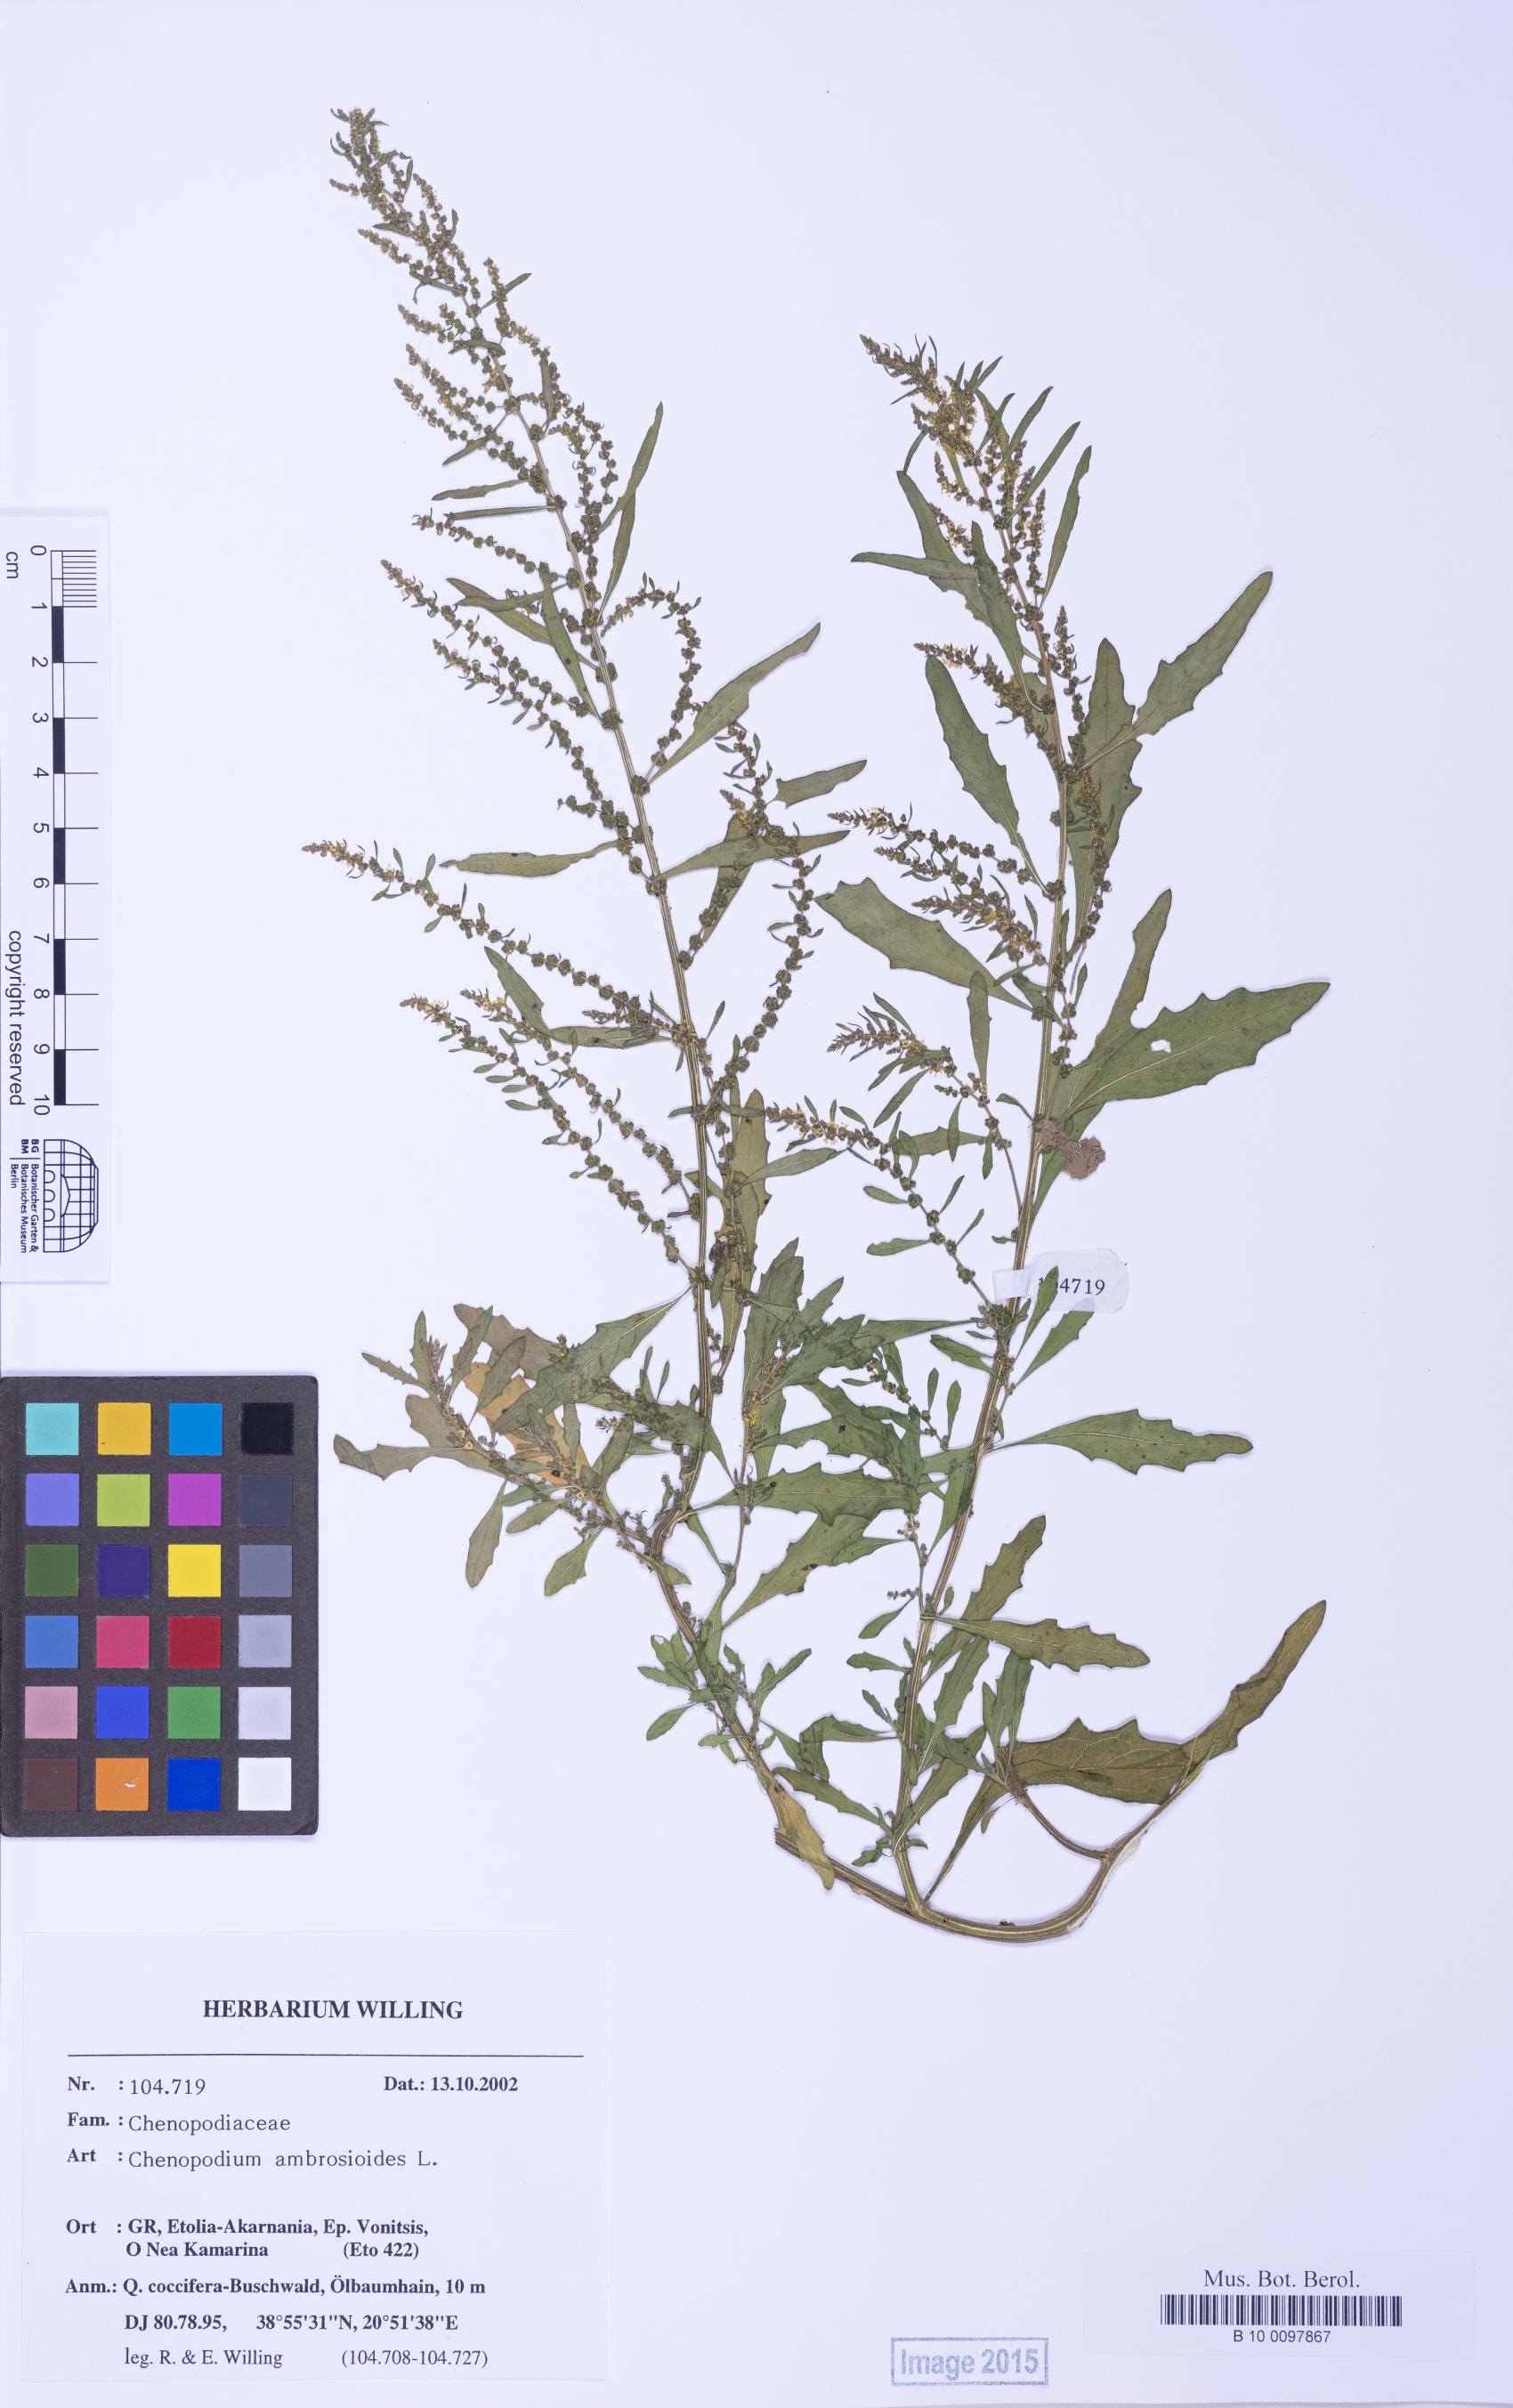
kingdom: Plantae
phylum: Tracheophyta
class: Magnoliopsida
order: Caryophyllales
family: Amaranthaceae
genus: Dysphania
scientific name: Dysphania ambrosioides
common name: Wormseed
